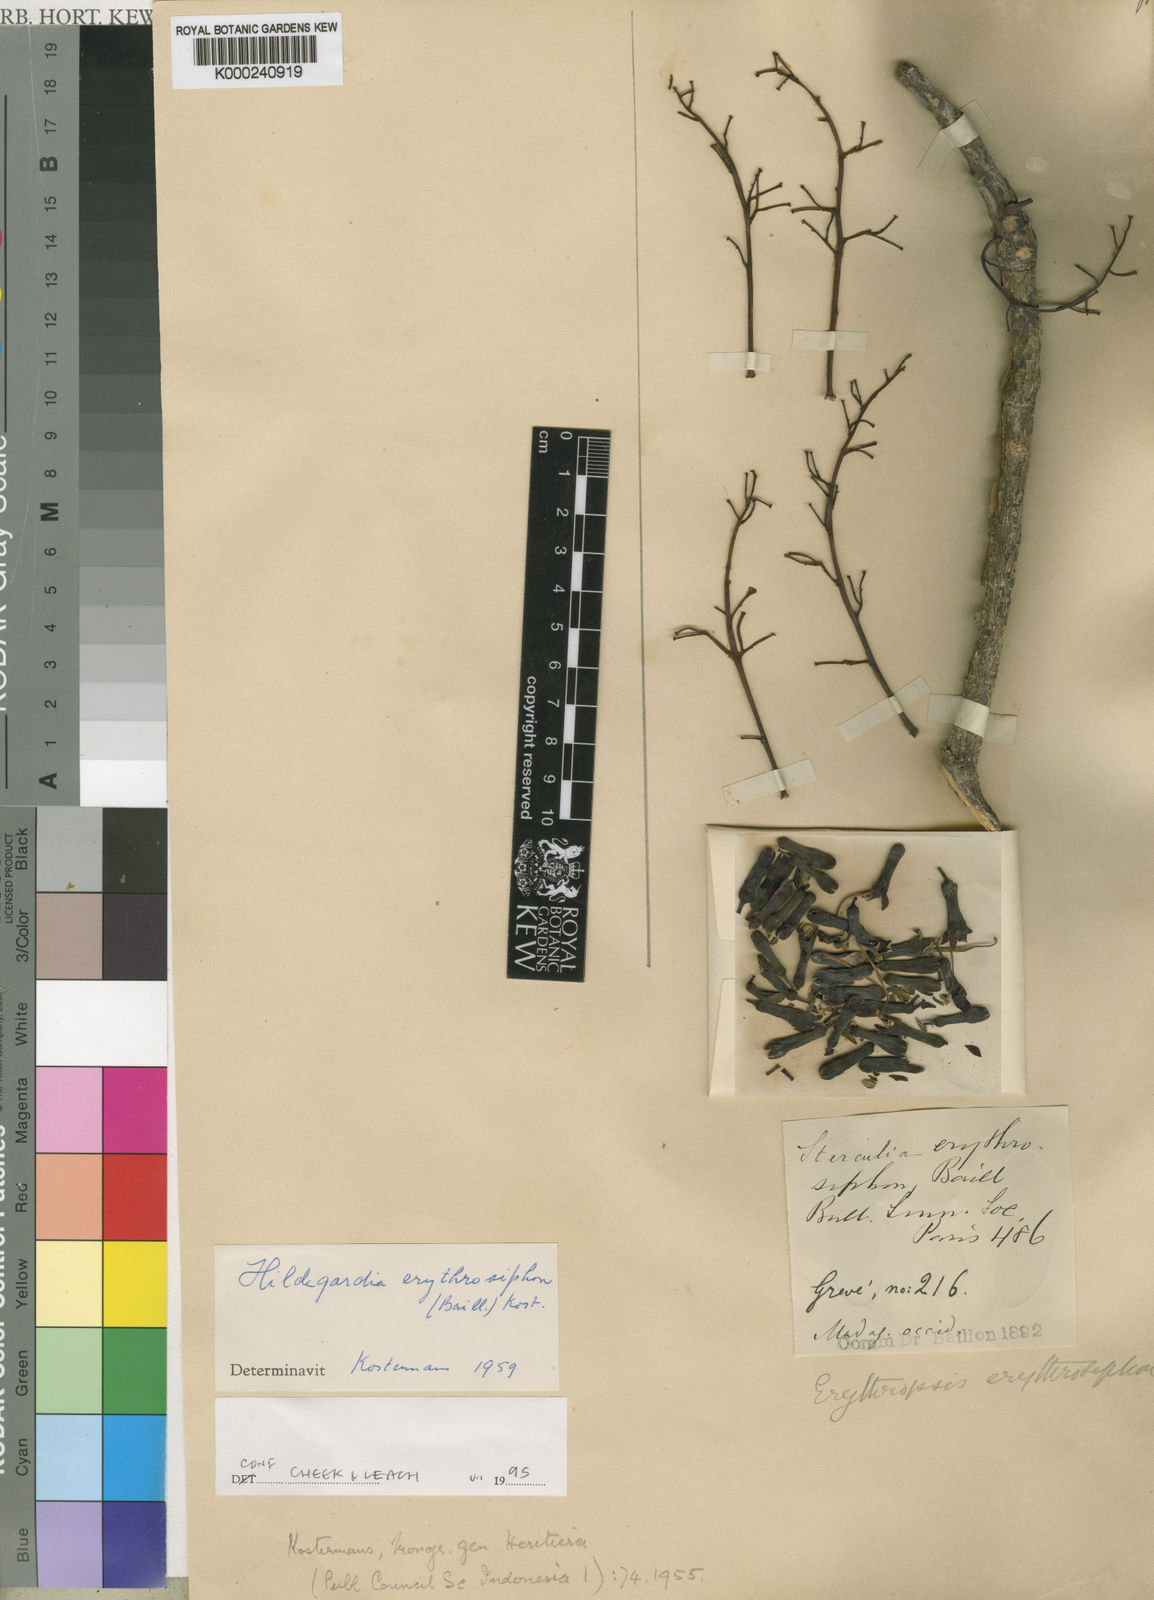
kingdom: Plantae
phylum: Tracheophyta
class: Magnoliopsida
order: Malvales
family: Malvaceae
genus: Hildegardia
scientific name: Hildegardia erythrosiphon
